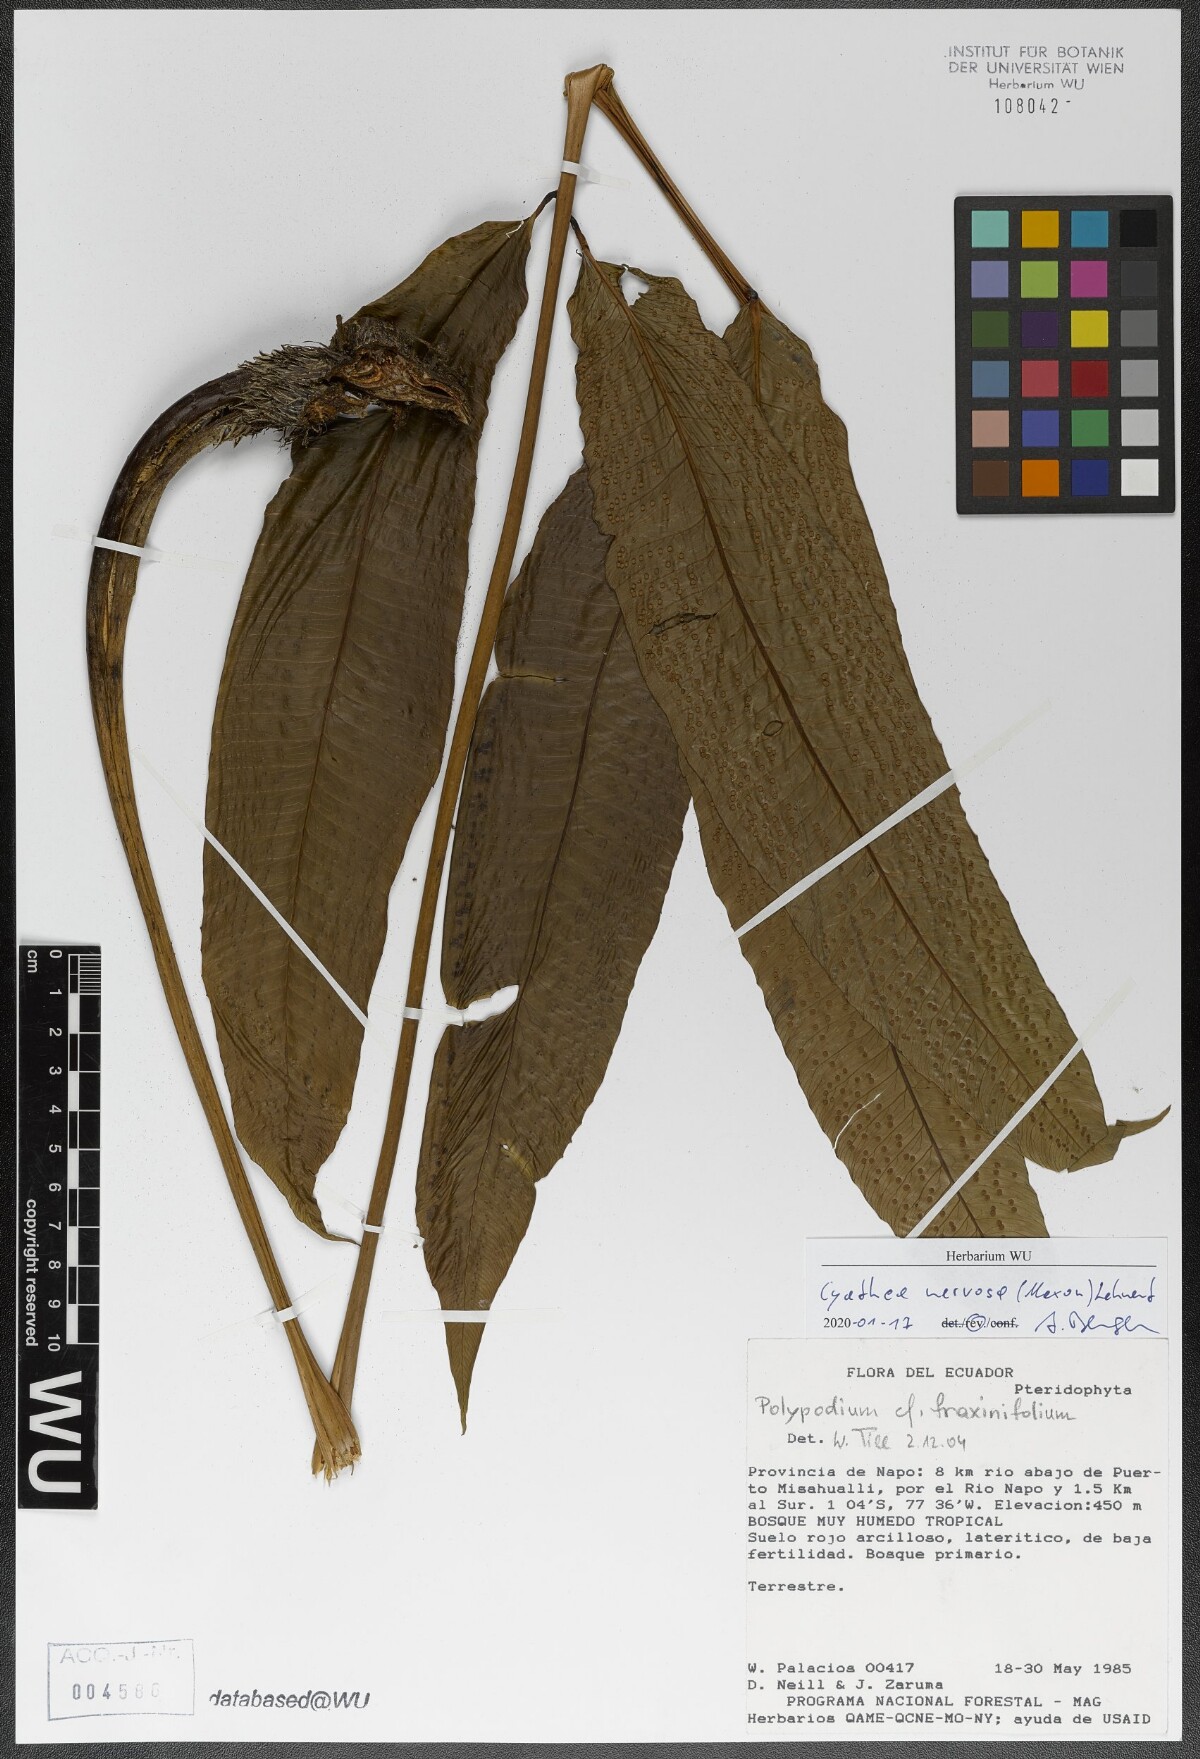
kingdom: Plantae
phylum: Tracheophyta
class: Polypodiopsida
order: Cyatheales
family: Cyatheaceae
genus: Cyathea
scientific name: Cyathea nervosa
